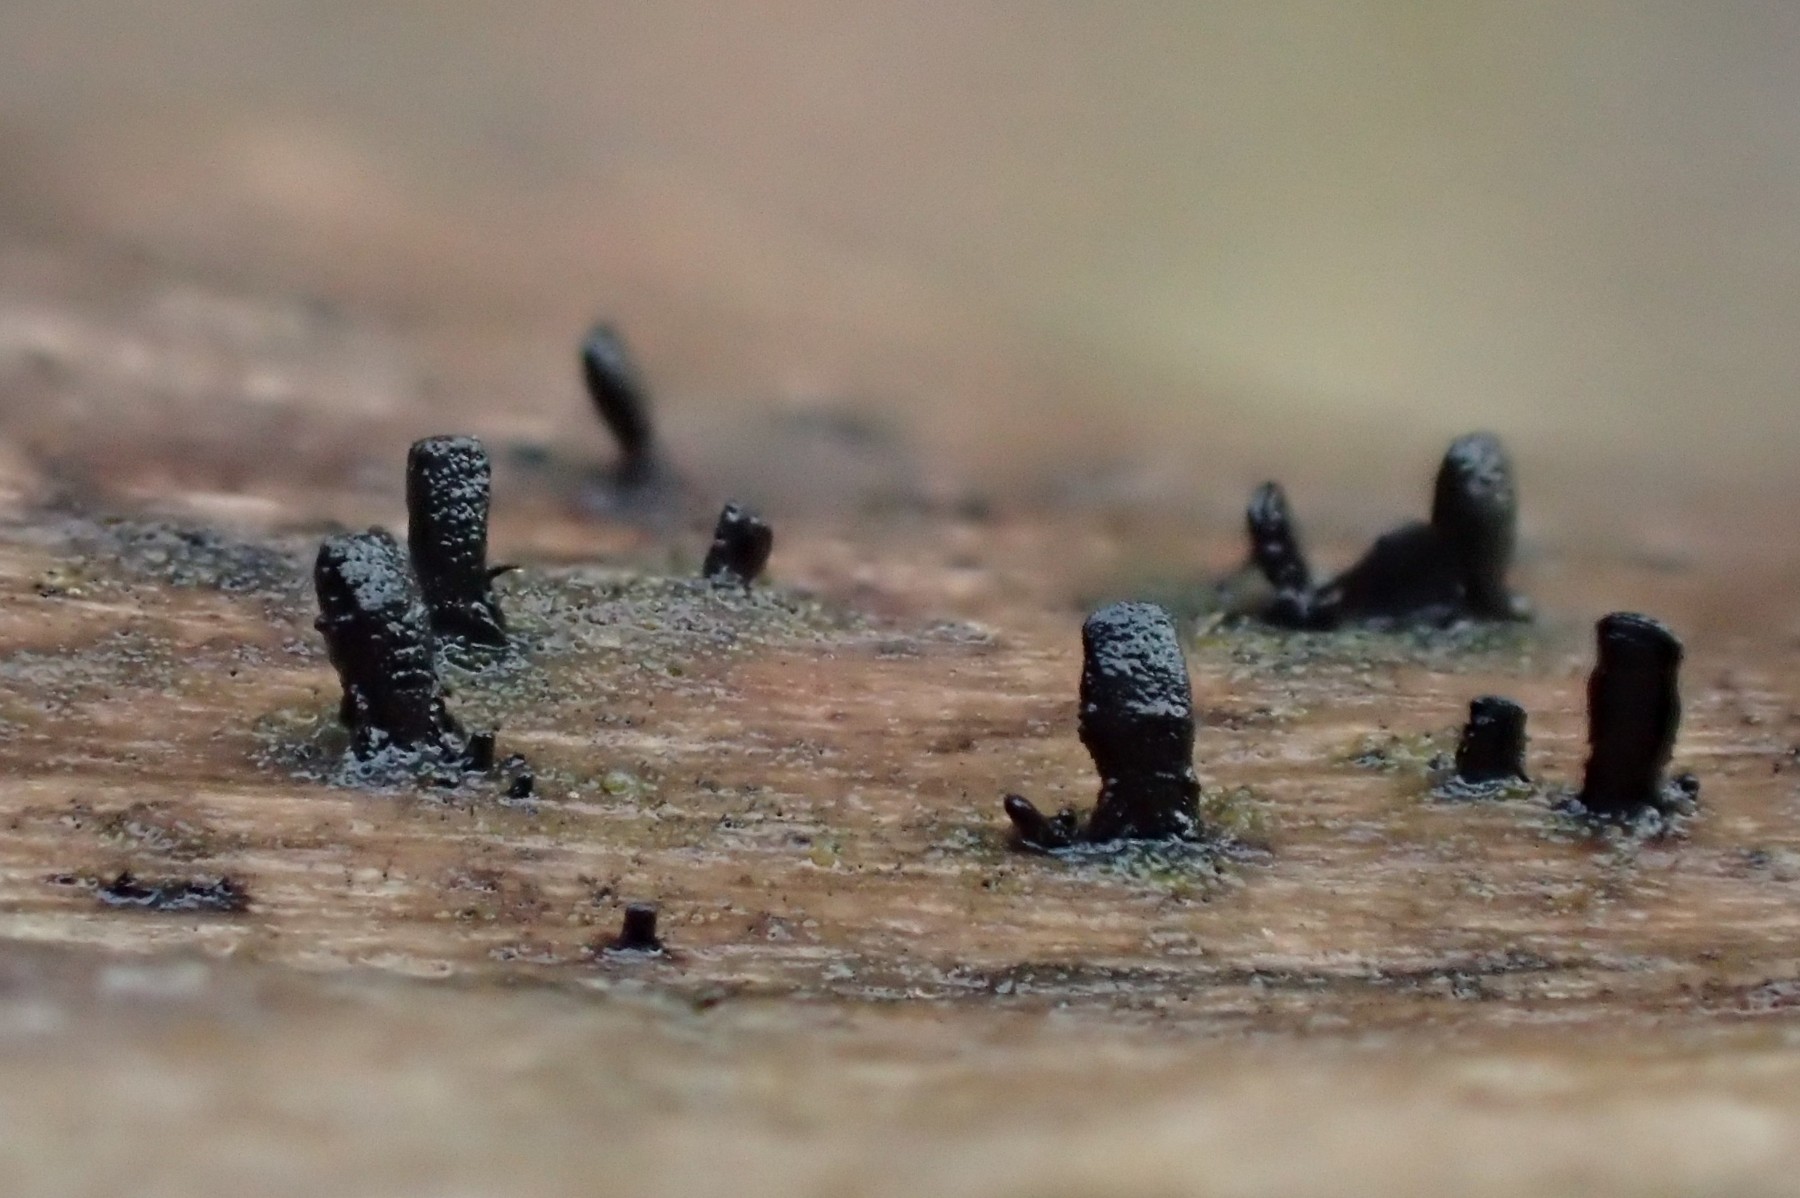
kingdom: Fungi
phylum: Ascomycota
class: Eurotiomycetes
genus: Glyphium
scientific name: Glyphium elatum
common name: kuløkse
